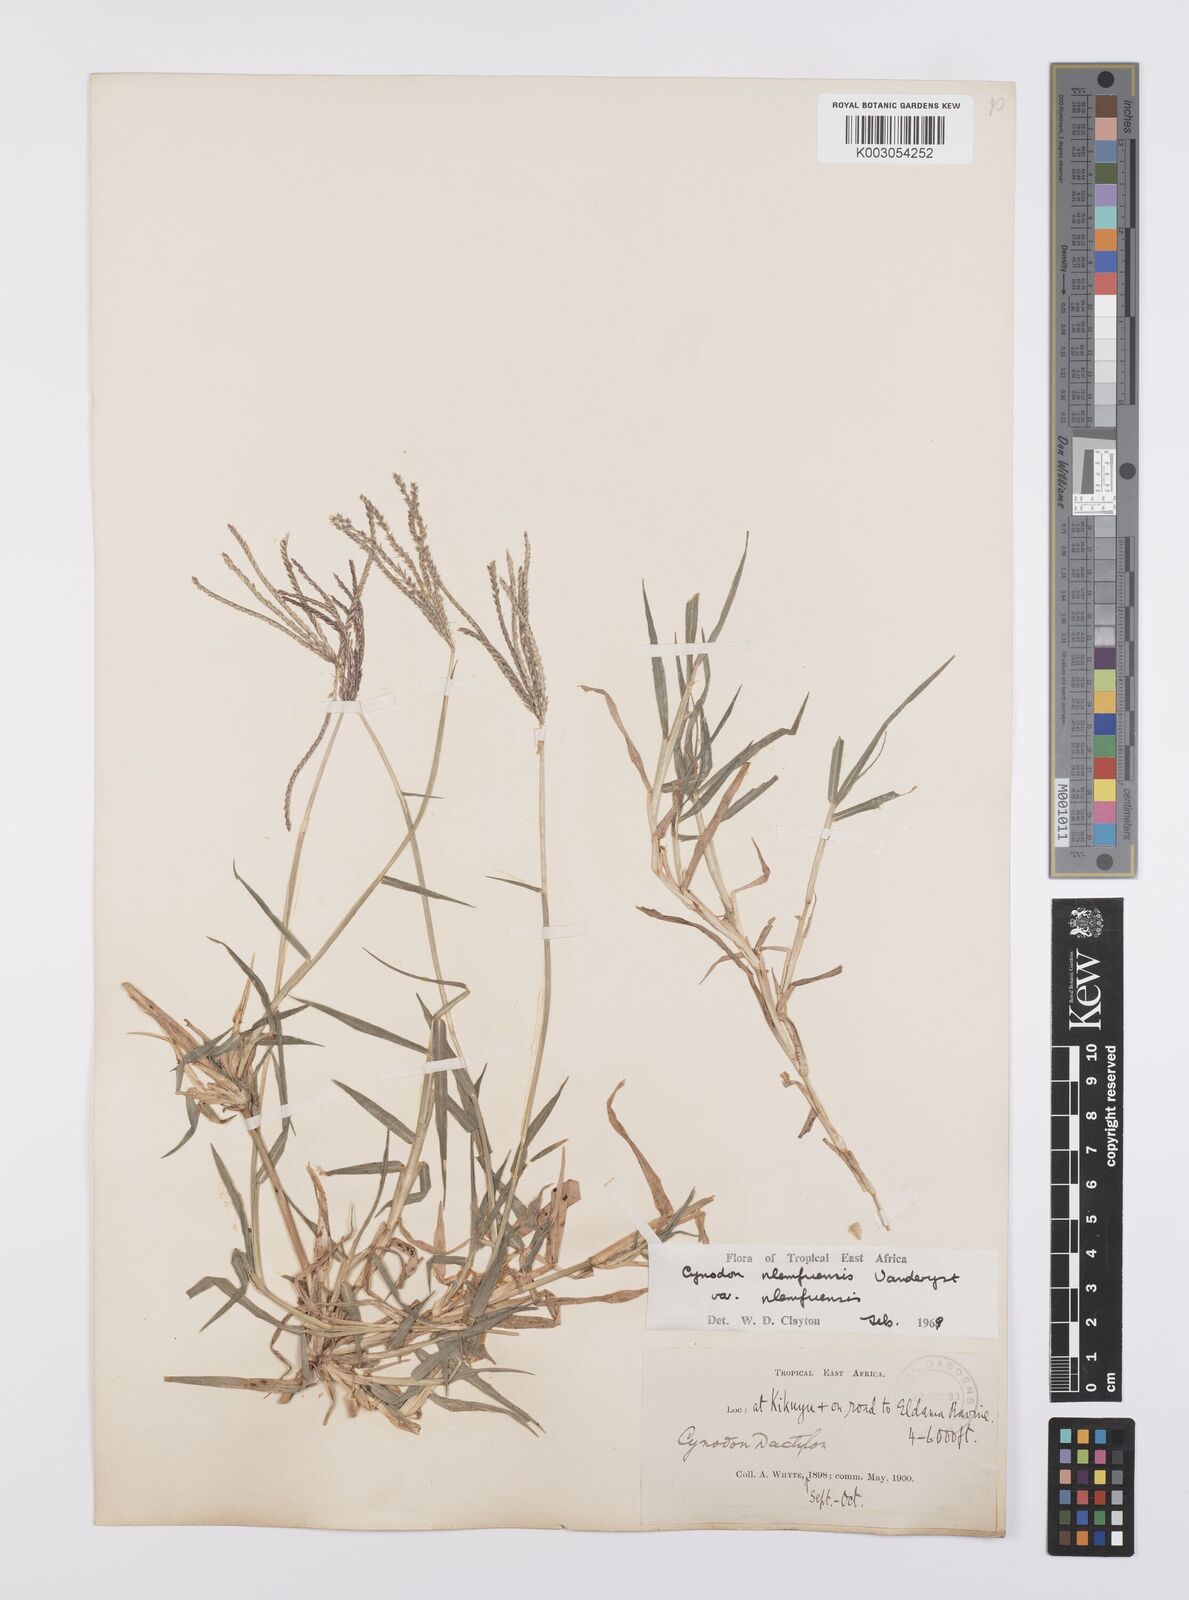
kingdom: Plantae
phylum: Tracheophyta
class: Liliopsida
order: Poales
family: Poaceae
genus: Cynodon
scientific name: Cynodon nlemfuensis
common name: African bermudagrass
